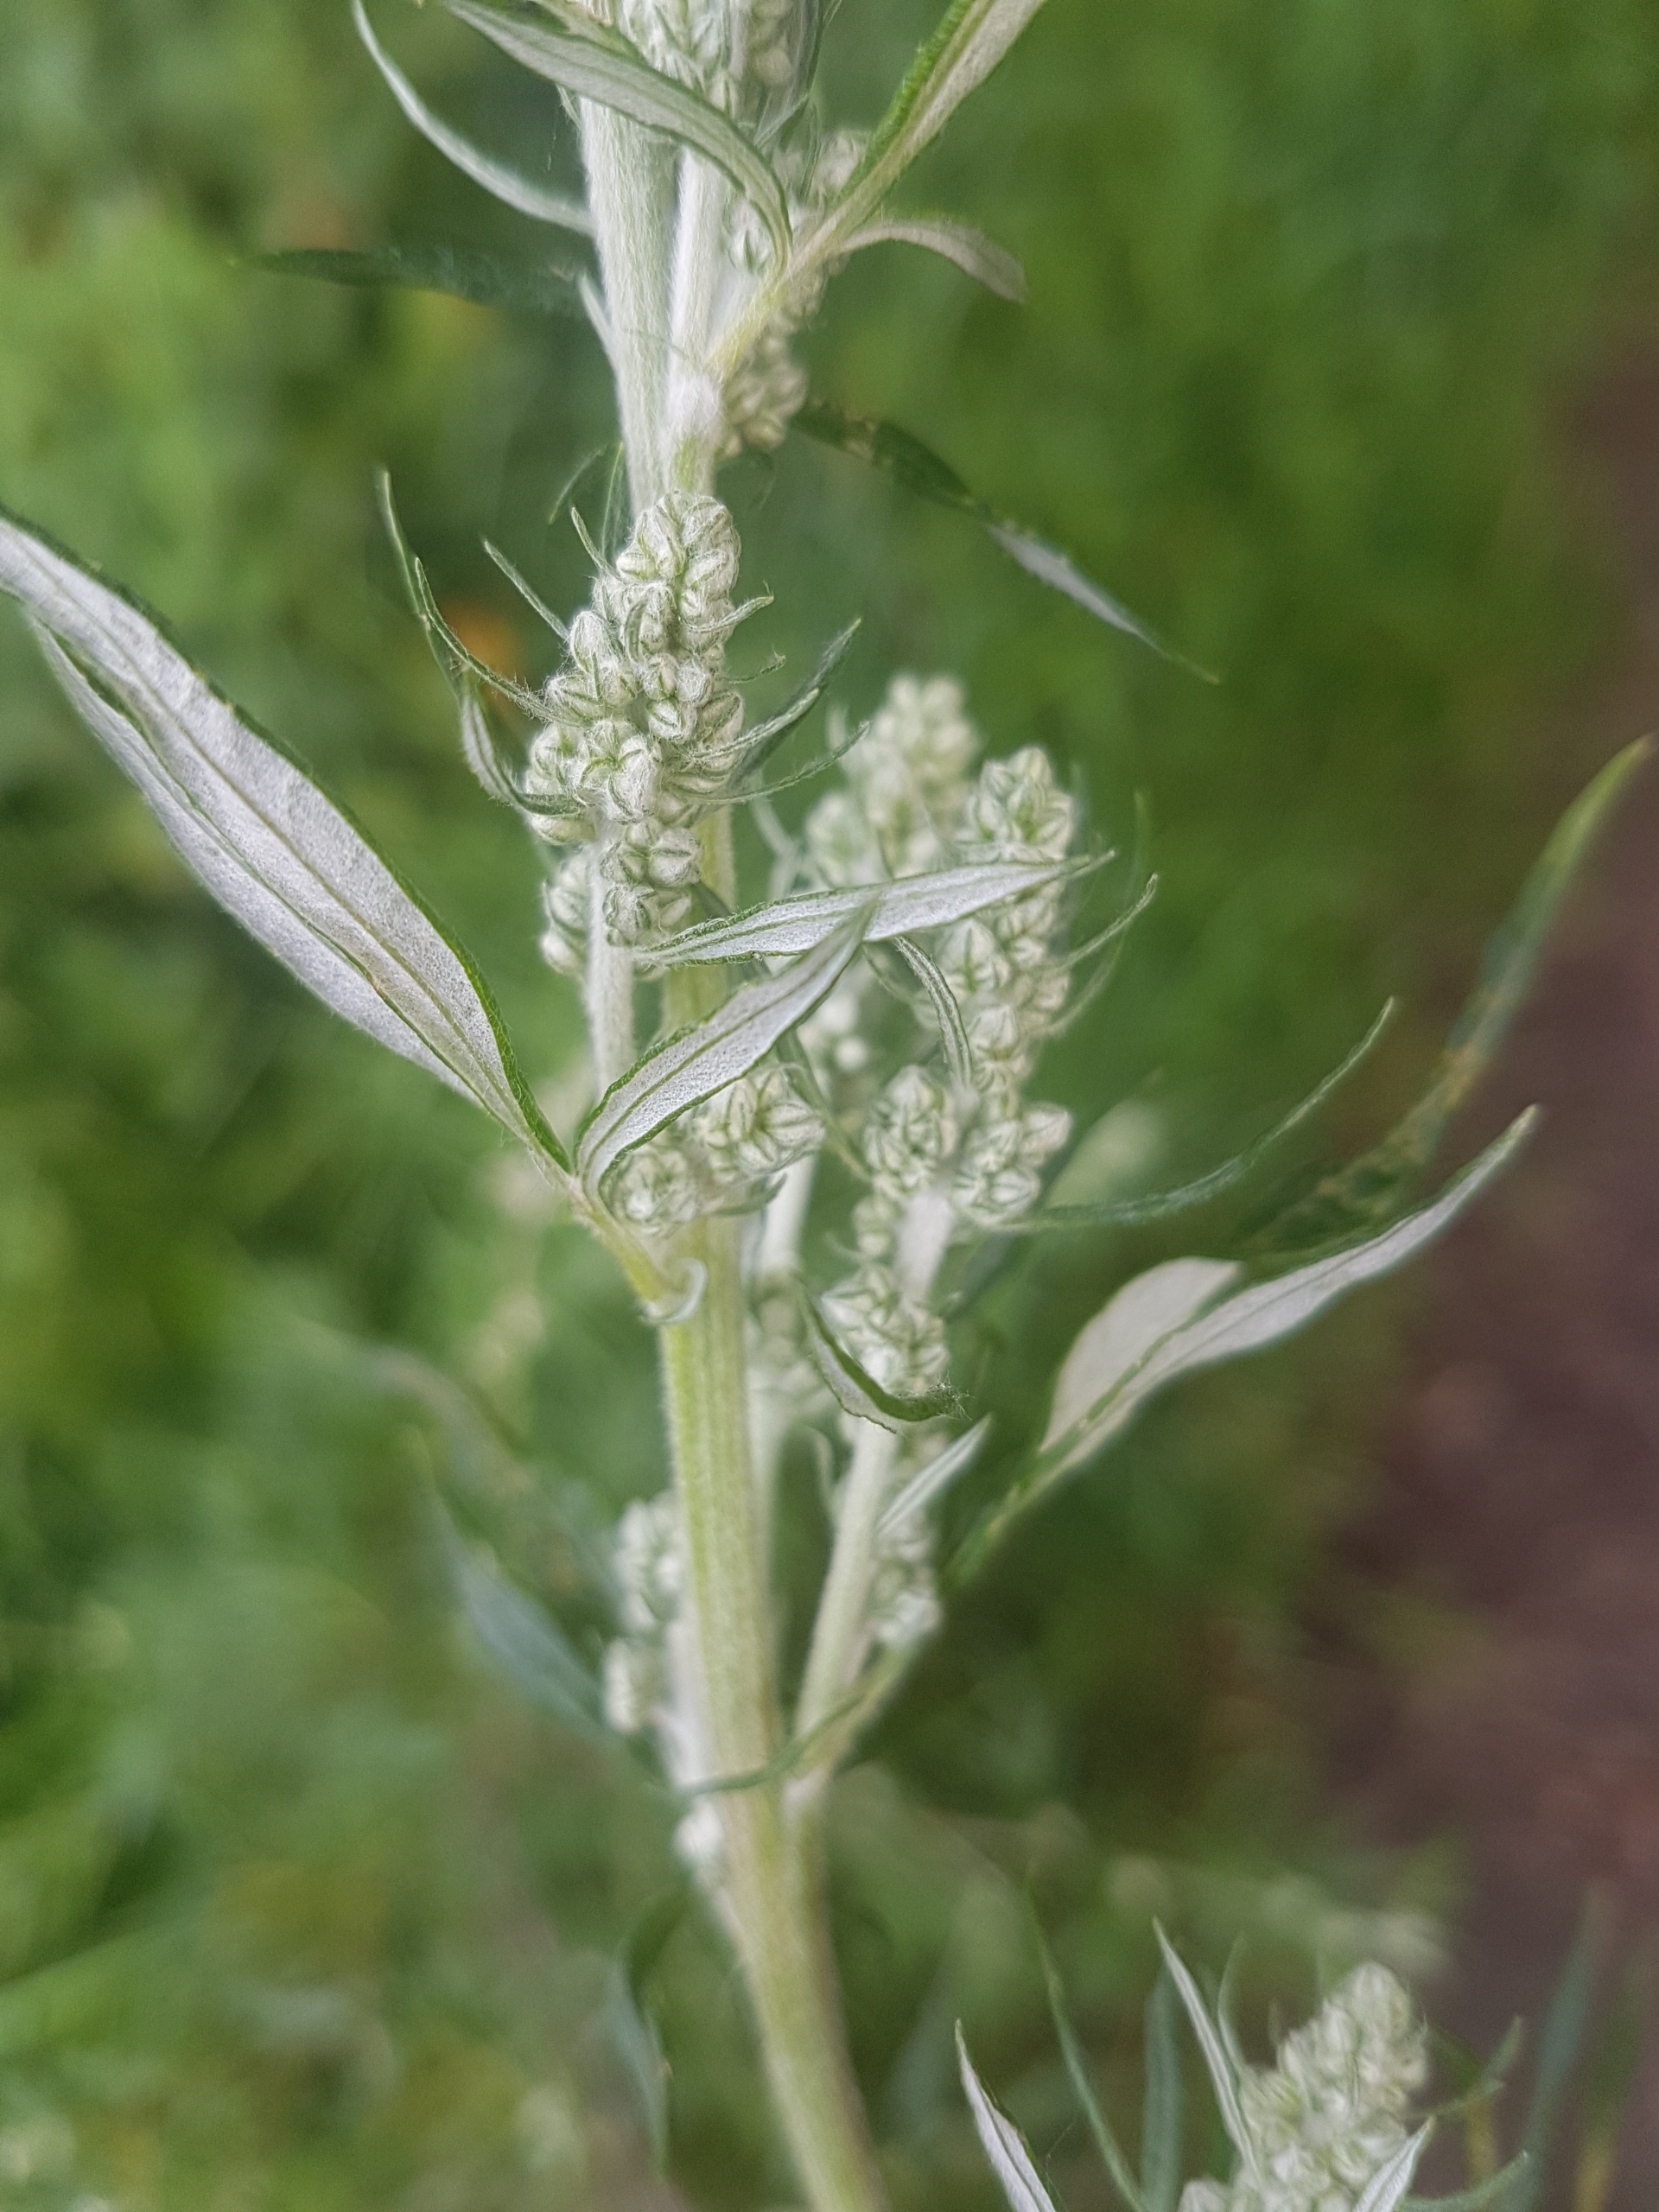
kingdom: Plantae
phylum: Tracheophyta
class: Magnoliopsida
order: Asterales
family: Asteraceae
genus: Artemisia
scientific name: Artemisia vulgaris
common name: Grå-bynke
